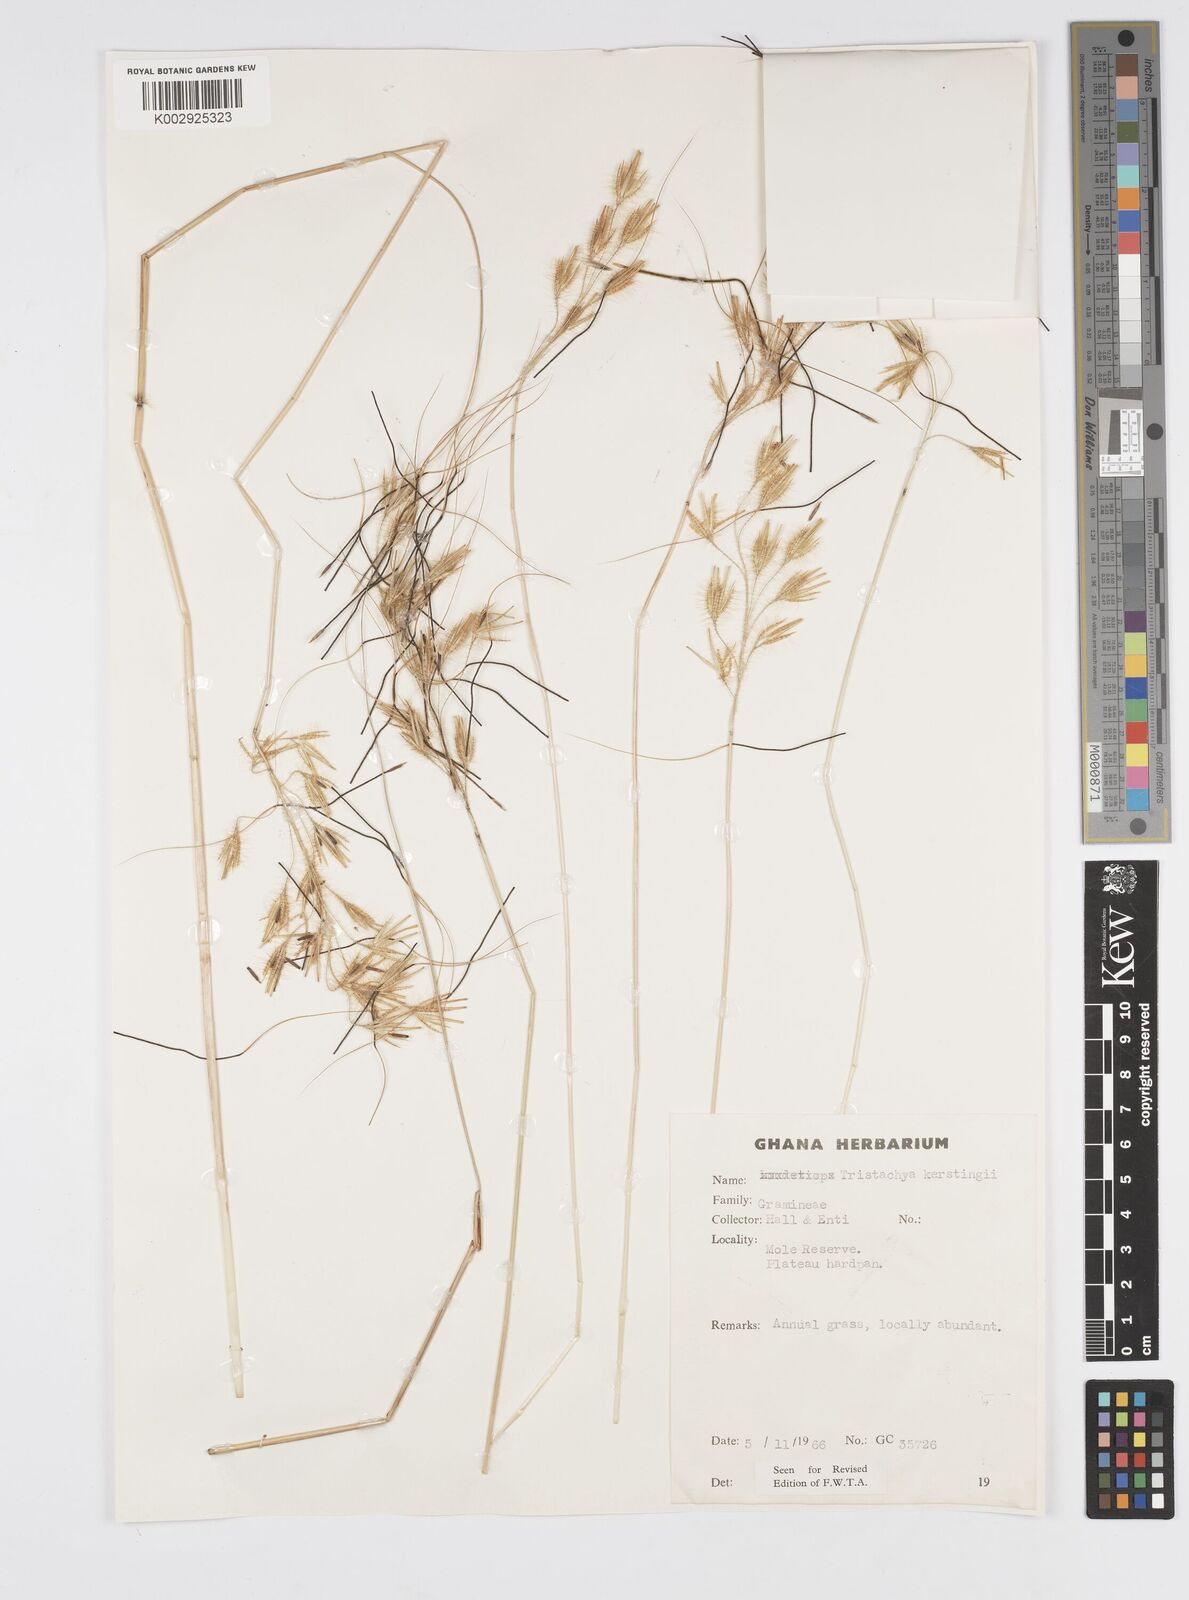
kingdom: Plantae
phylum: Tracheophyta
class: Liliopsida
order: Poales
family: Poaceae
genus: Loudetiopsis
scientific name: Loudetiopsis kerstingii
